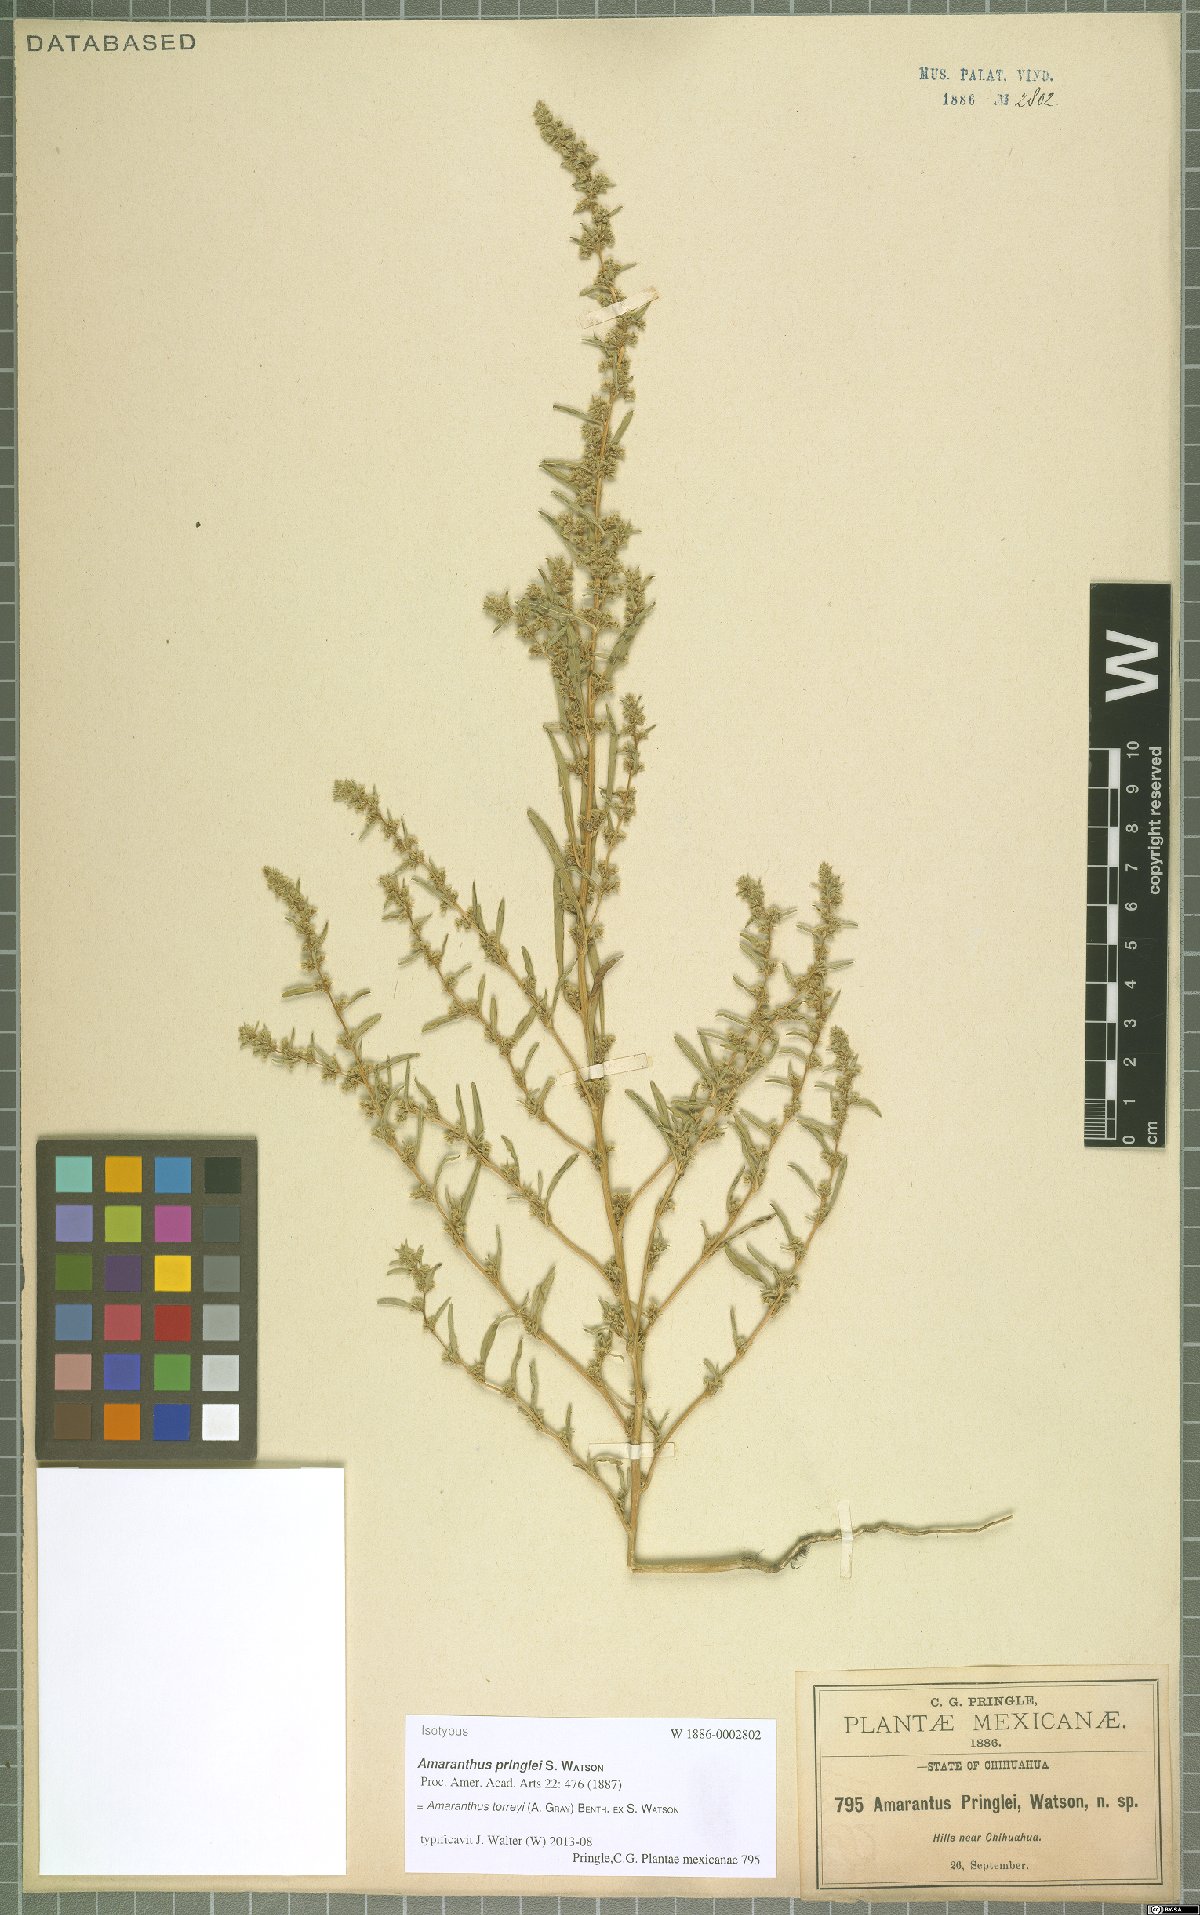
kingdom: Plantae
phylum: Tracheophyta
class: Magnoliopsida
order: Caryophyllales
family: Amaranthaceae
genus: Amaranthus
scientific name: Amaranthus torreyi
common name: Bigelow's amaranth
